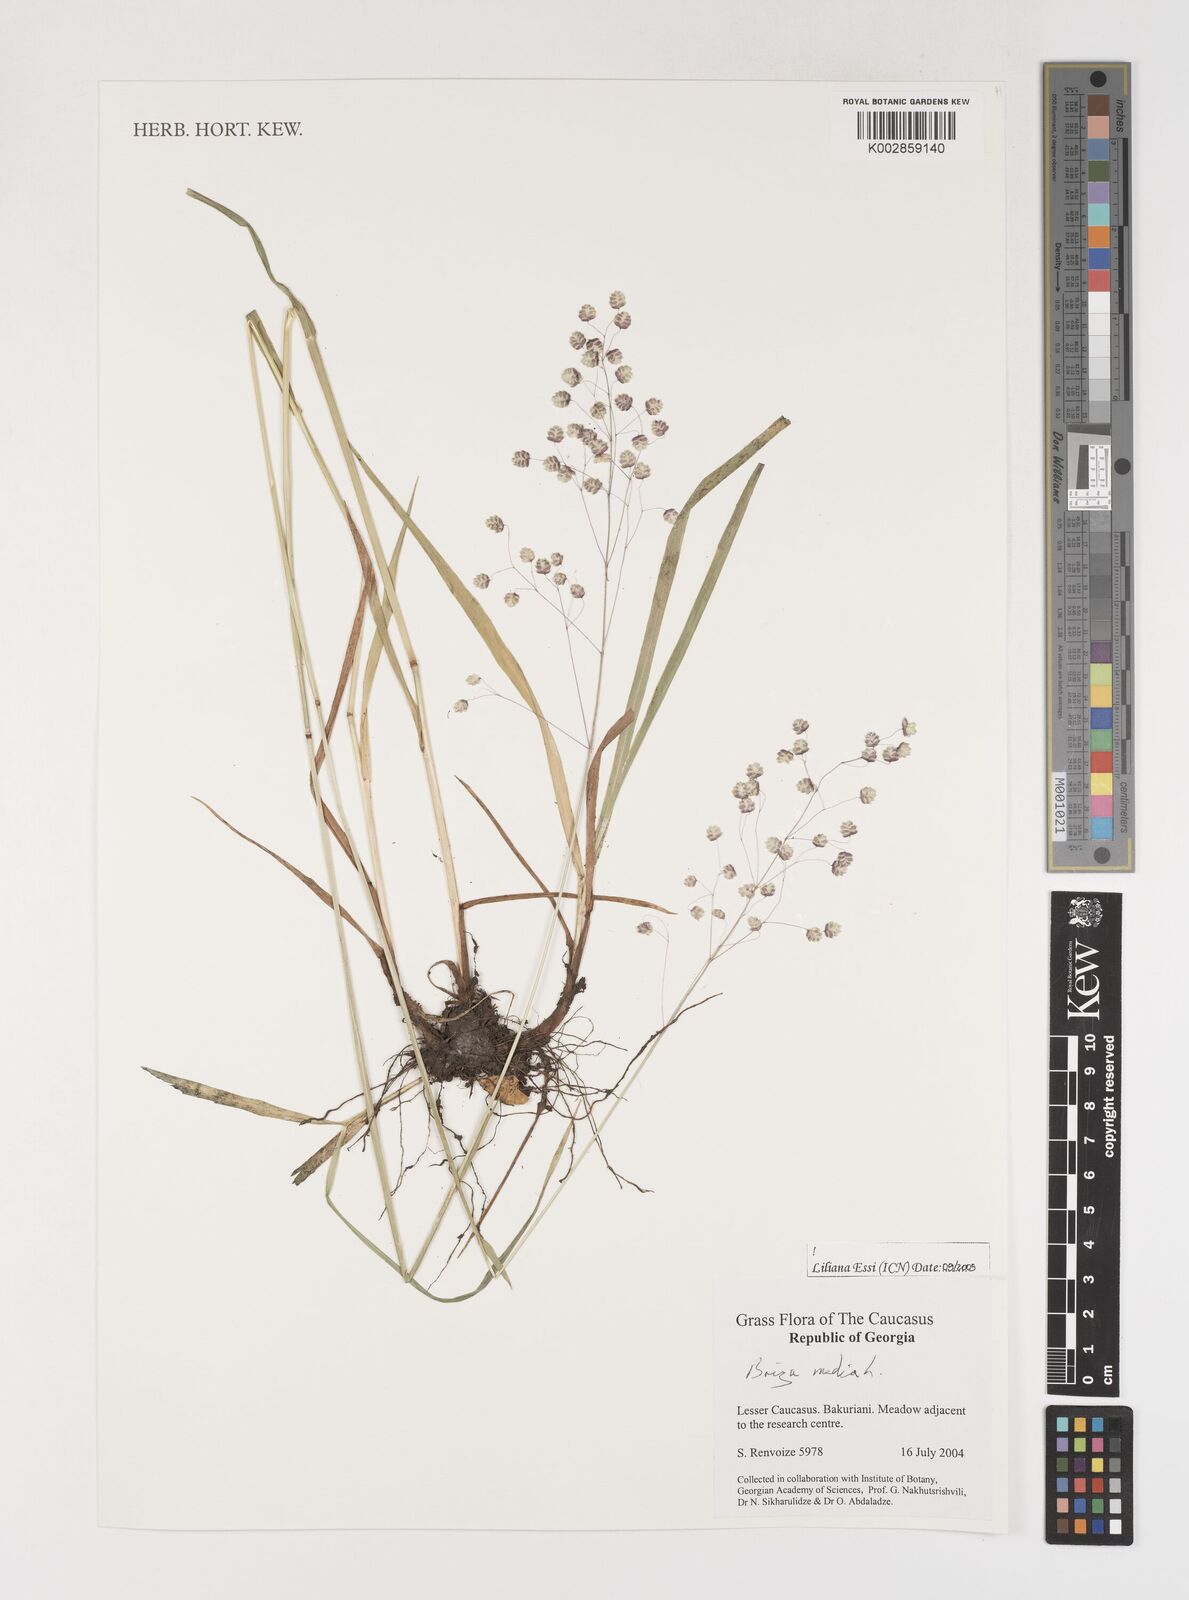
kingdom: Plantae
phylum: Tracheophyta
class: Liliopsida
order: Poales
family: Poaceae
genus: Briza
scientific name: Briza media
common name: Quaking grass
